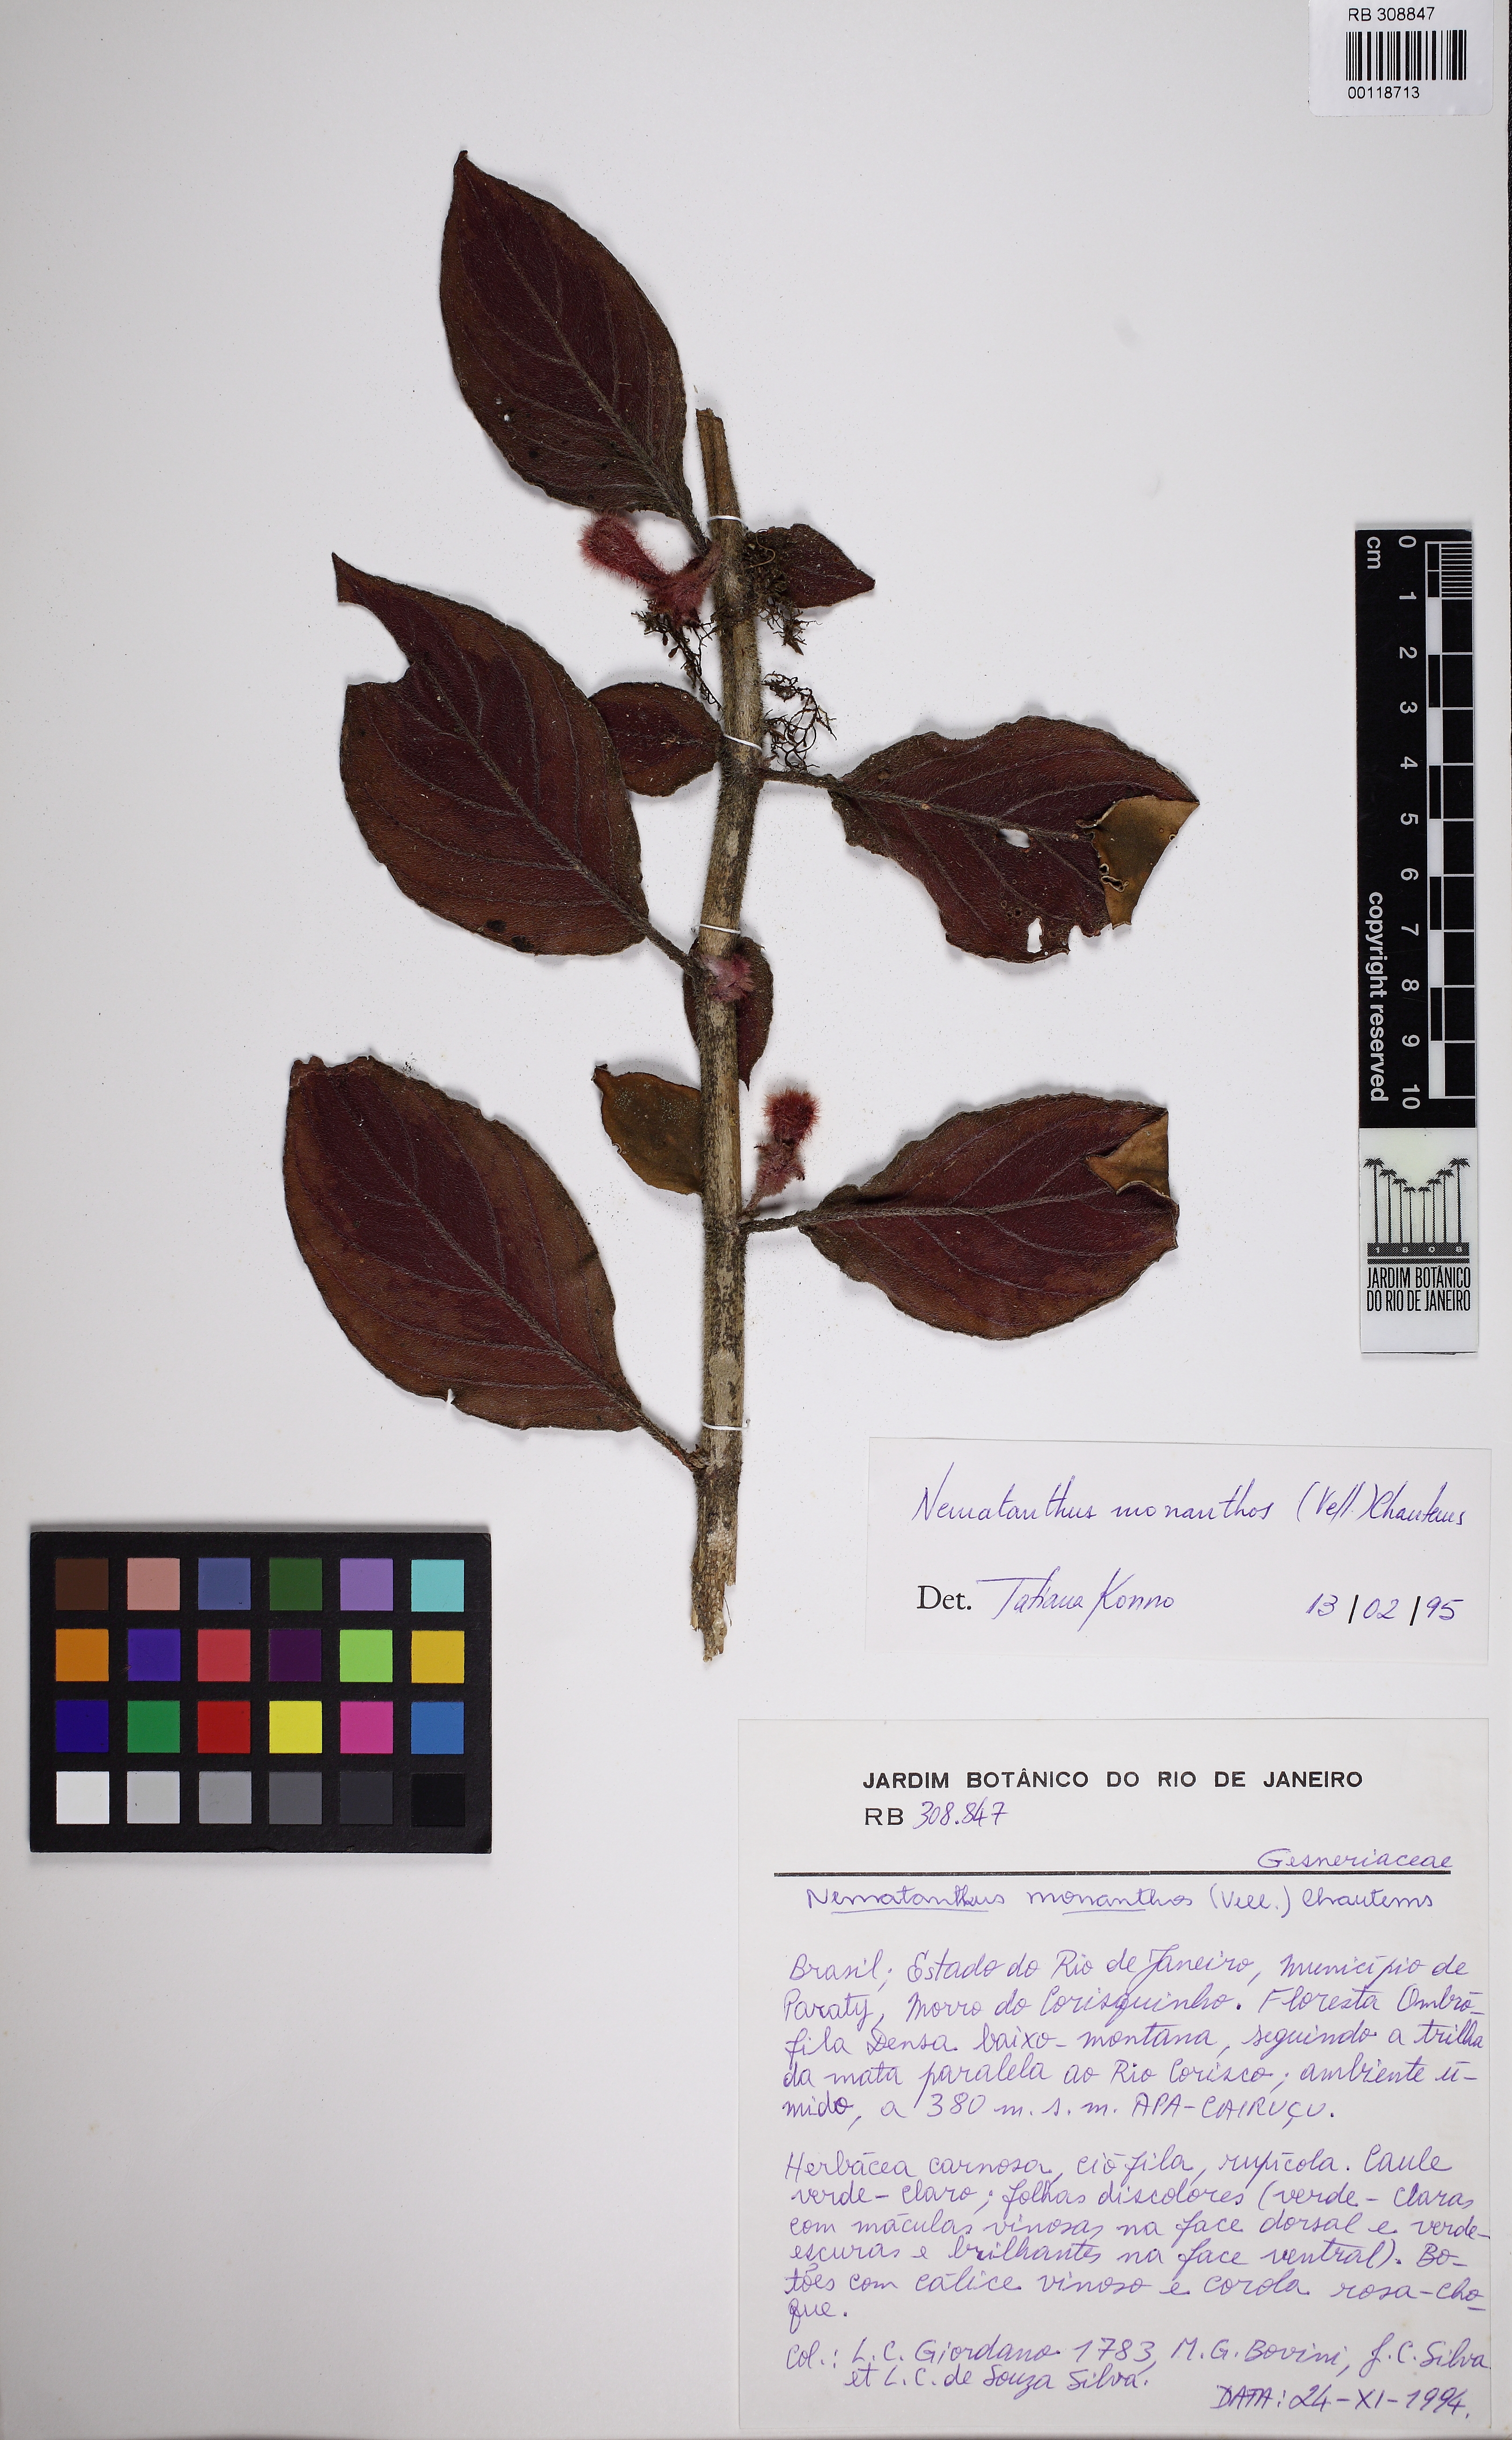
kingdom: Plantae
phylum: Tracheophyta
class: Magnoliopsida
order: Lamiales
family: Gesneriaceae
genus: Nematanthus
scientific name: Nematanthus monanthos
